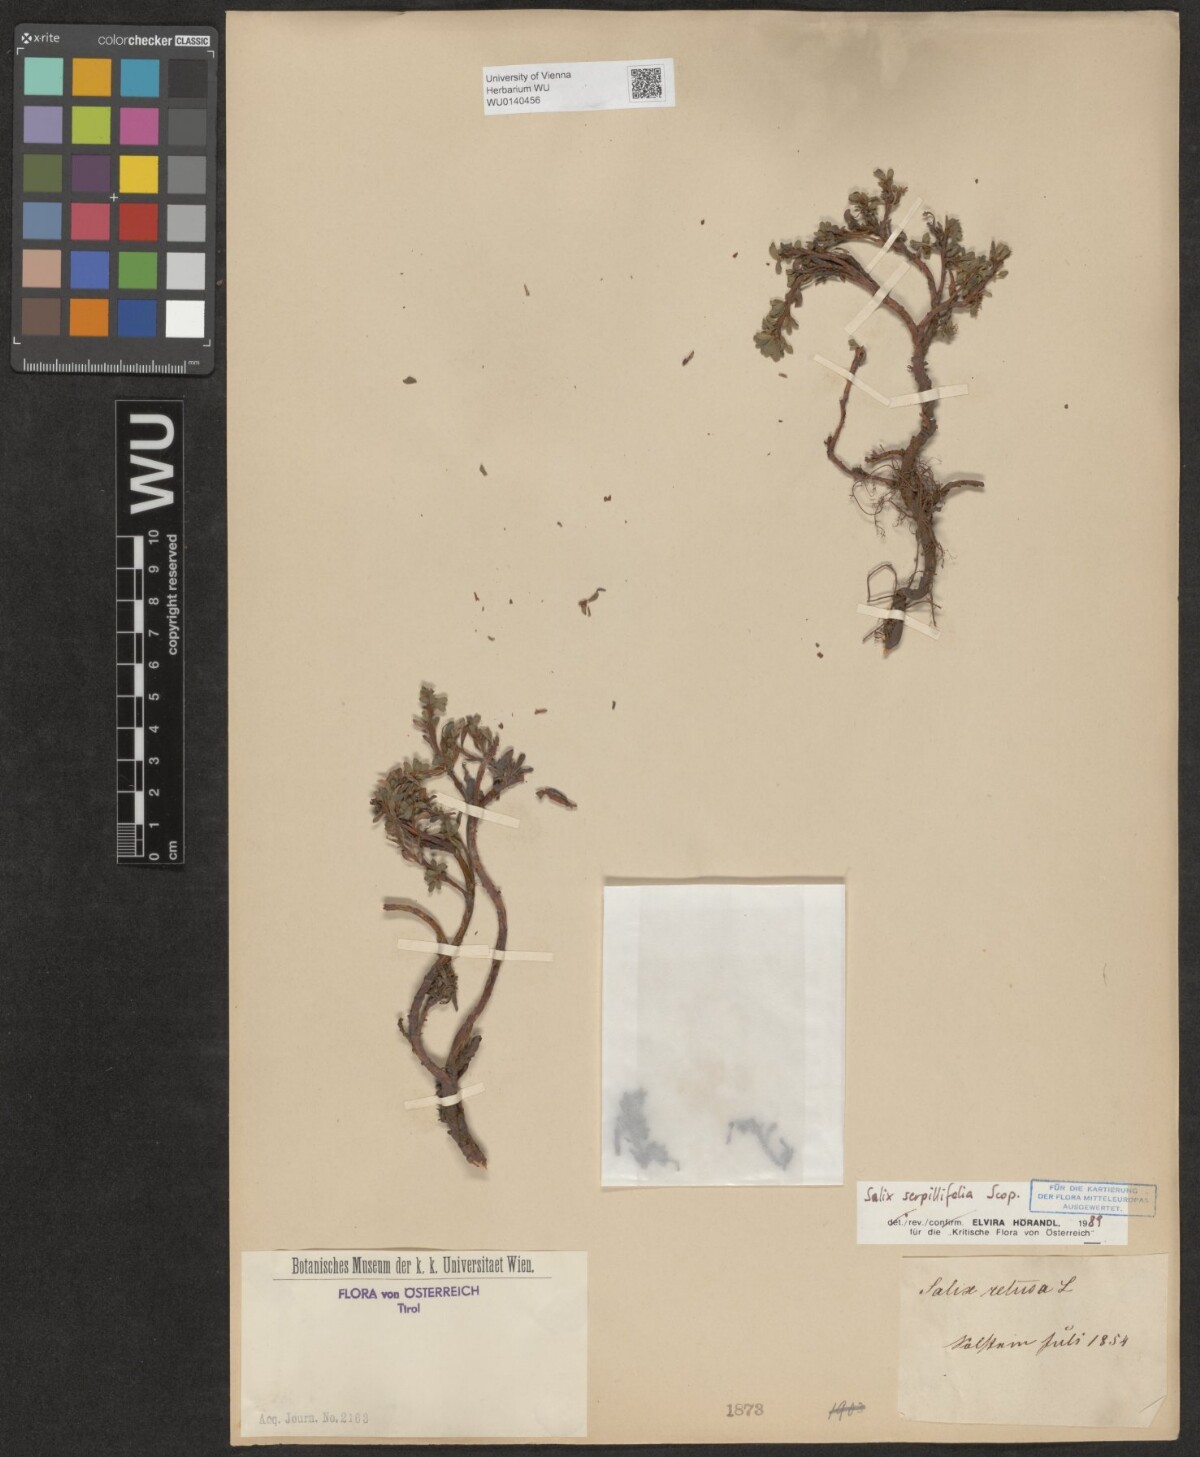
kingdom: Plantae
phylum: Tracheophyta
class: Magnoliopsida
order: Malpighiales
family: Salicaceae
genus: Salix
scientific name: Salix serpillifolia
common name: Thyme-leaf willow
